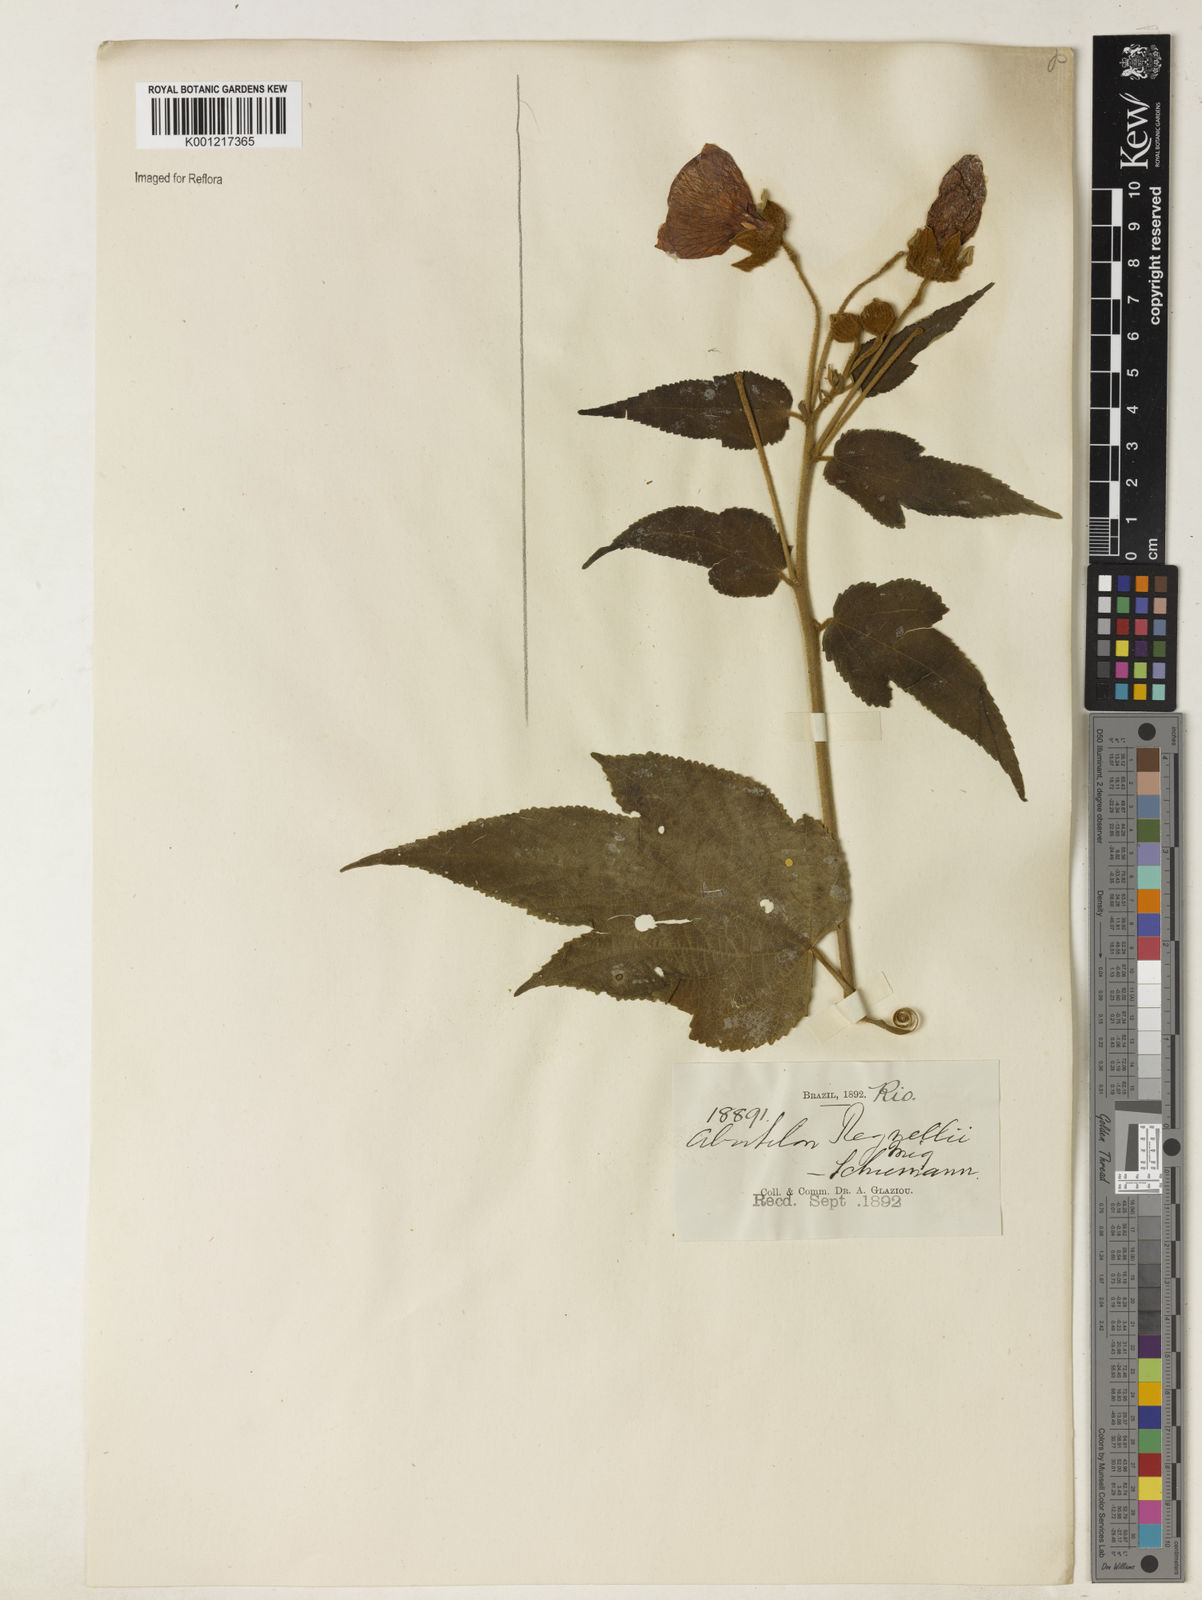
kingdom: Plantae
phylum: Tracheophyta
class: Magnoliopsida
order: Malvales
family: Malvaceae
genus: Callianthe
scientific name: Callianthe regnellii
